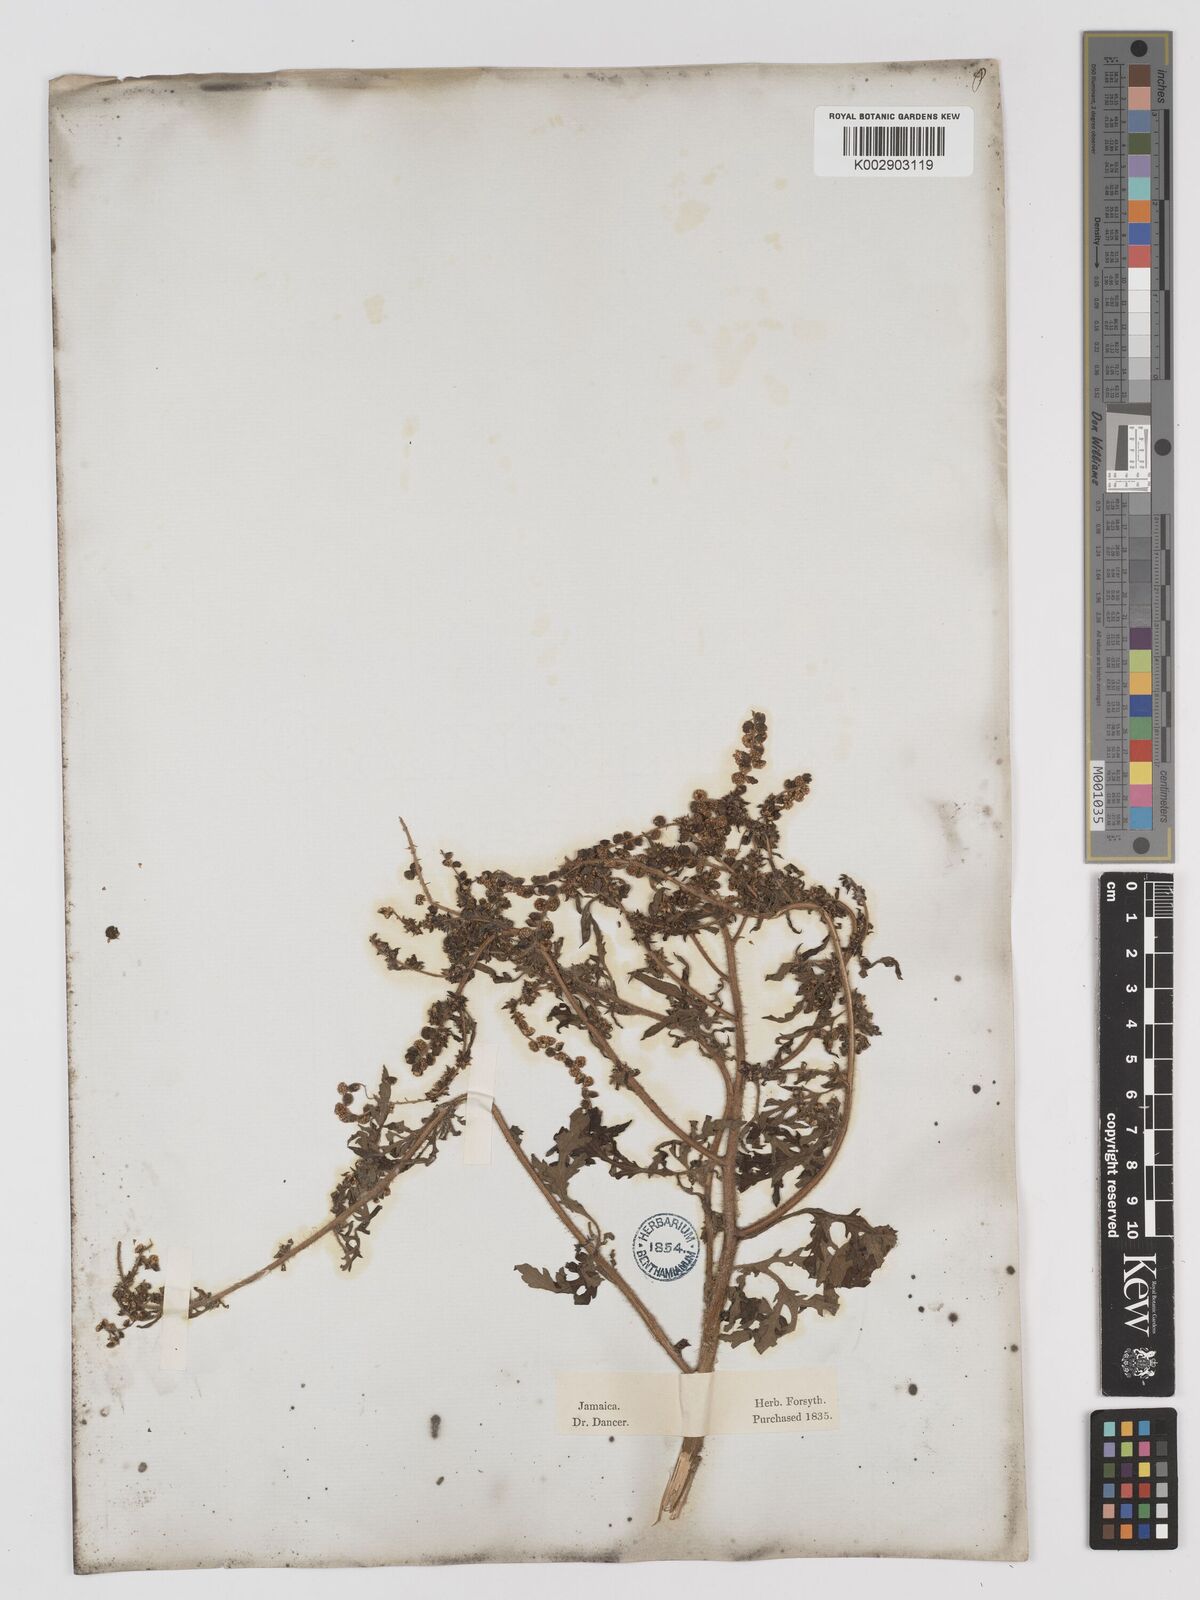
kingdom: Plantae
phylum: Tracheophyta
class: Magnoliopsida
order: Asterales
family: Asteraceae
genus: Ambrosia
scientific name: Ambrosia artemisiifolia
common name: Annual ragweed
